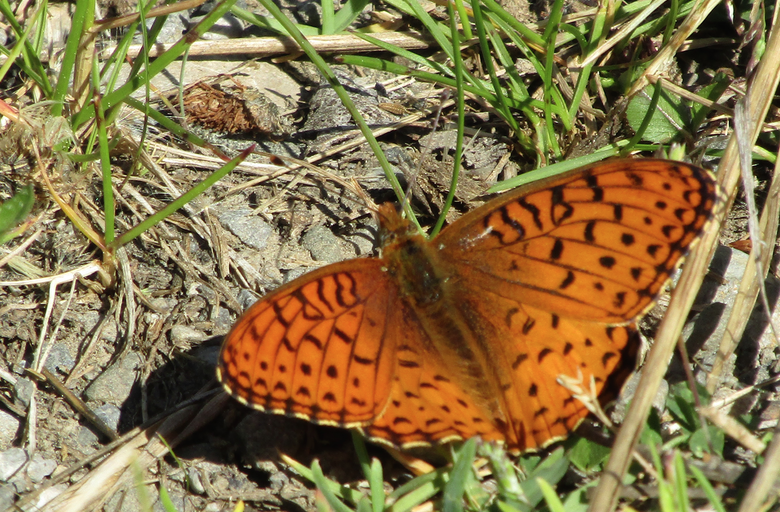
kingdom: Animalia
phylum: Arthropoda
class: Insecta
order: Lepidoptera
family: Nymphalidae
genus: Speyeria
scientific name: Speyeria
